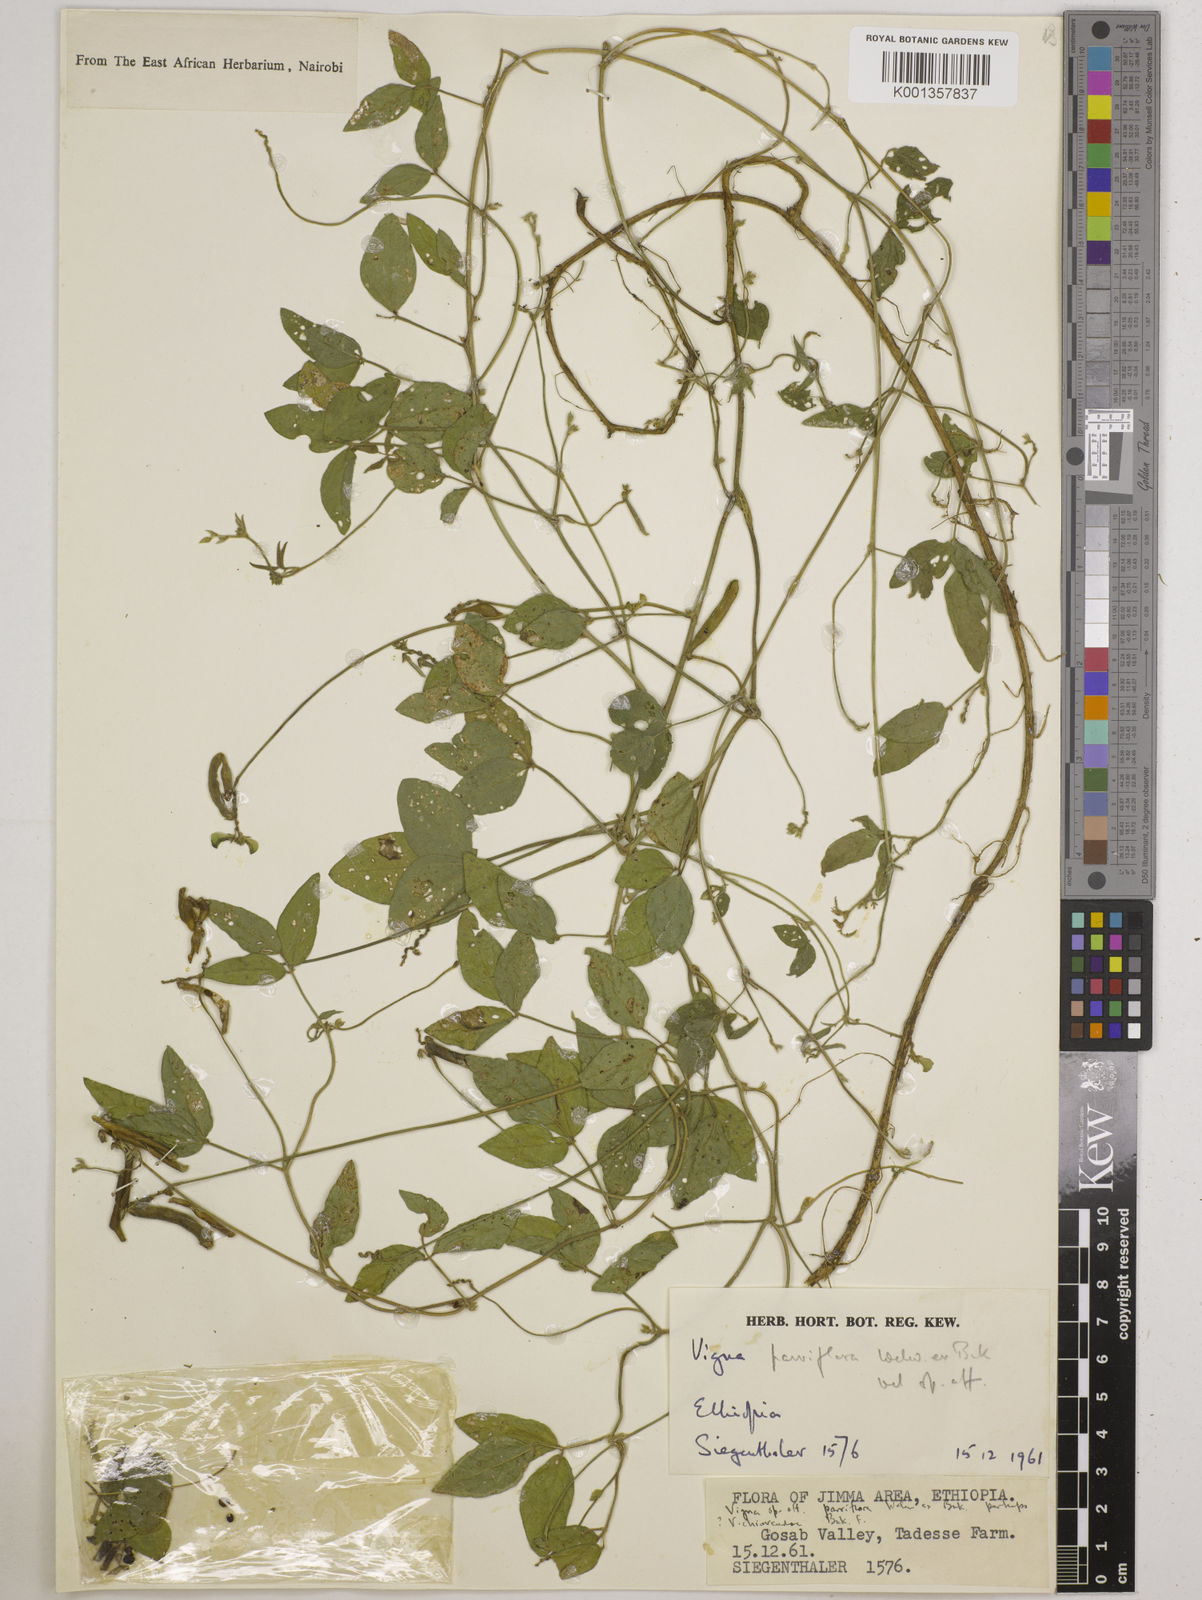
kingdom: Plantae
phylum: Tracheophyta
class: Magnoliopsida
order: Fabales
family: Fabaceae
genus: Vigna
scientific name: Vigna
